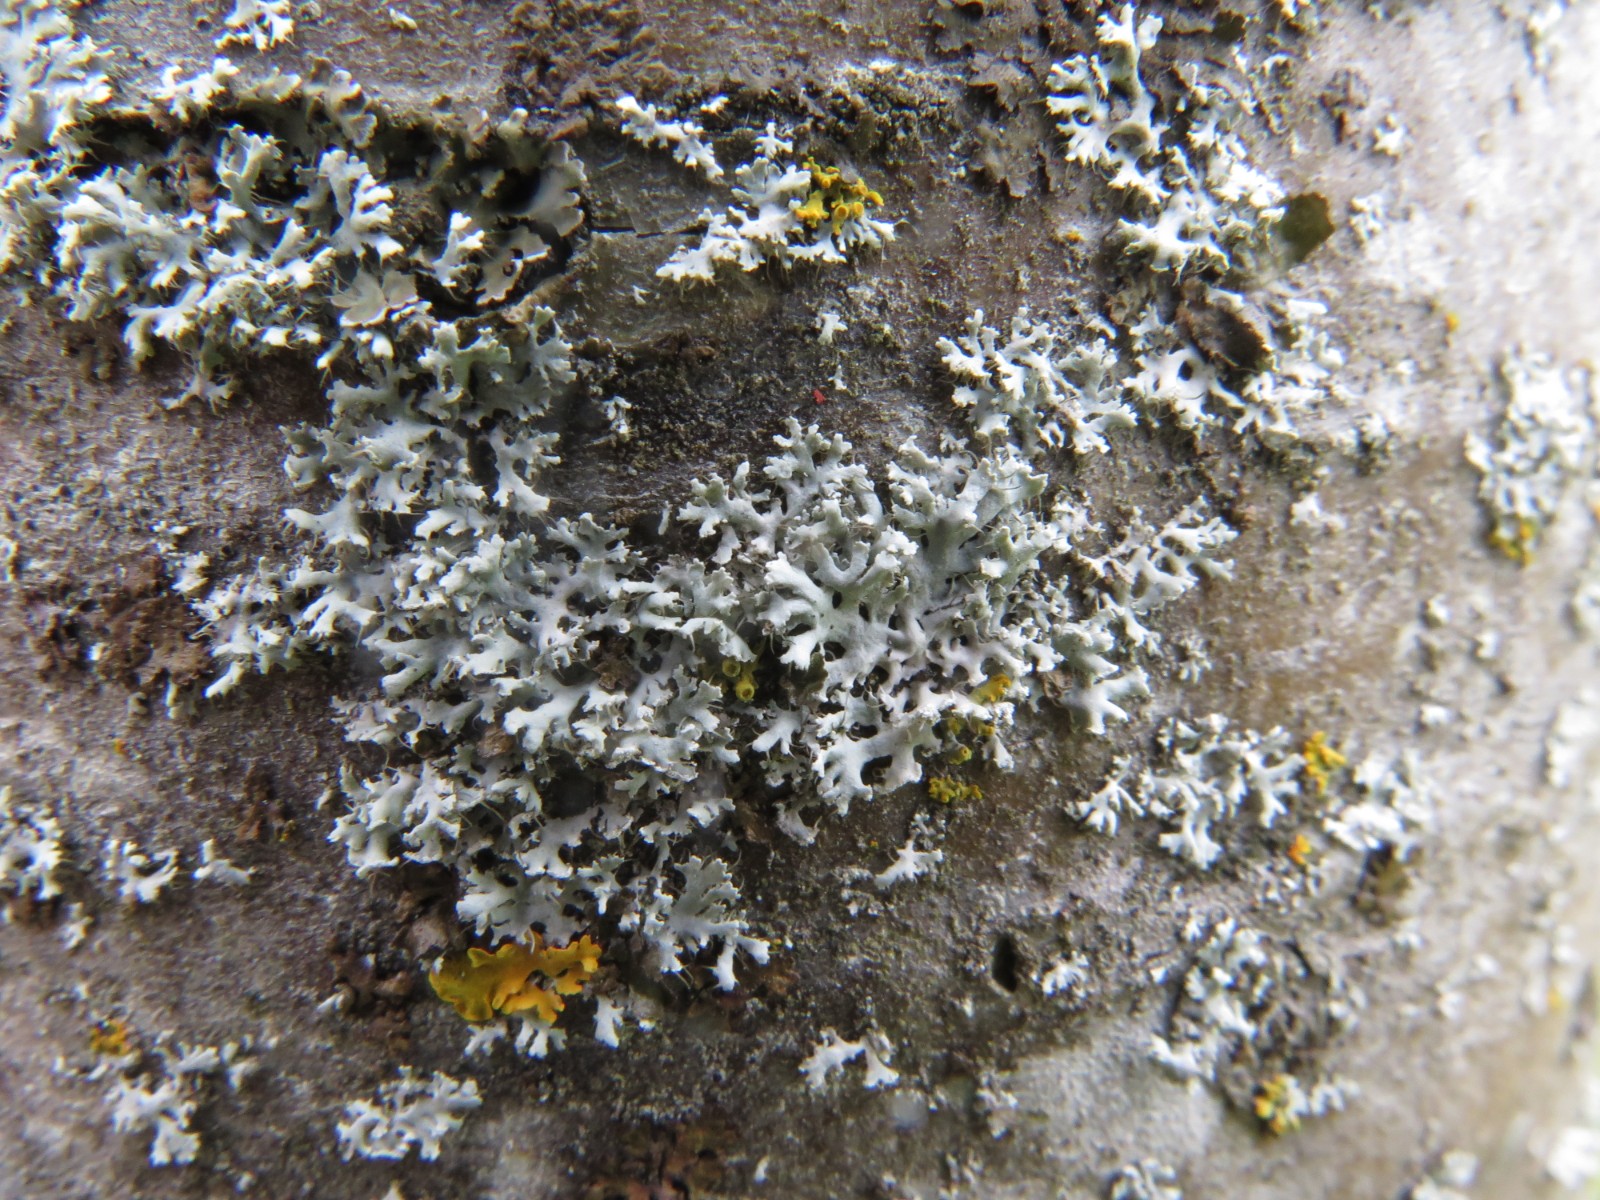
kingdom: Fungi
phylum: Ascomycota
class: Lecanoromycetes
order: Caliciales
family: Physciaceae
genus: Physcia
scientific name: Physcia tenella
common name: spæd rosetlav
